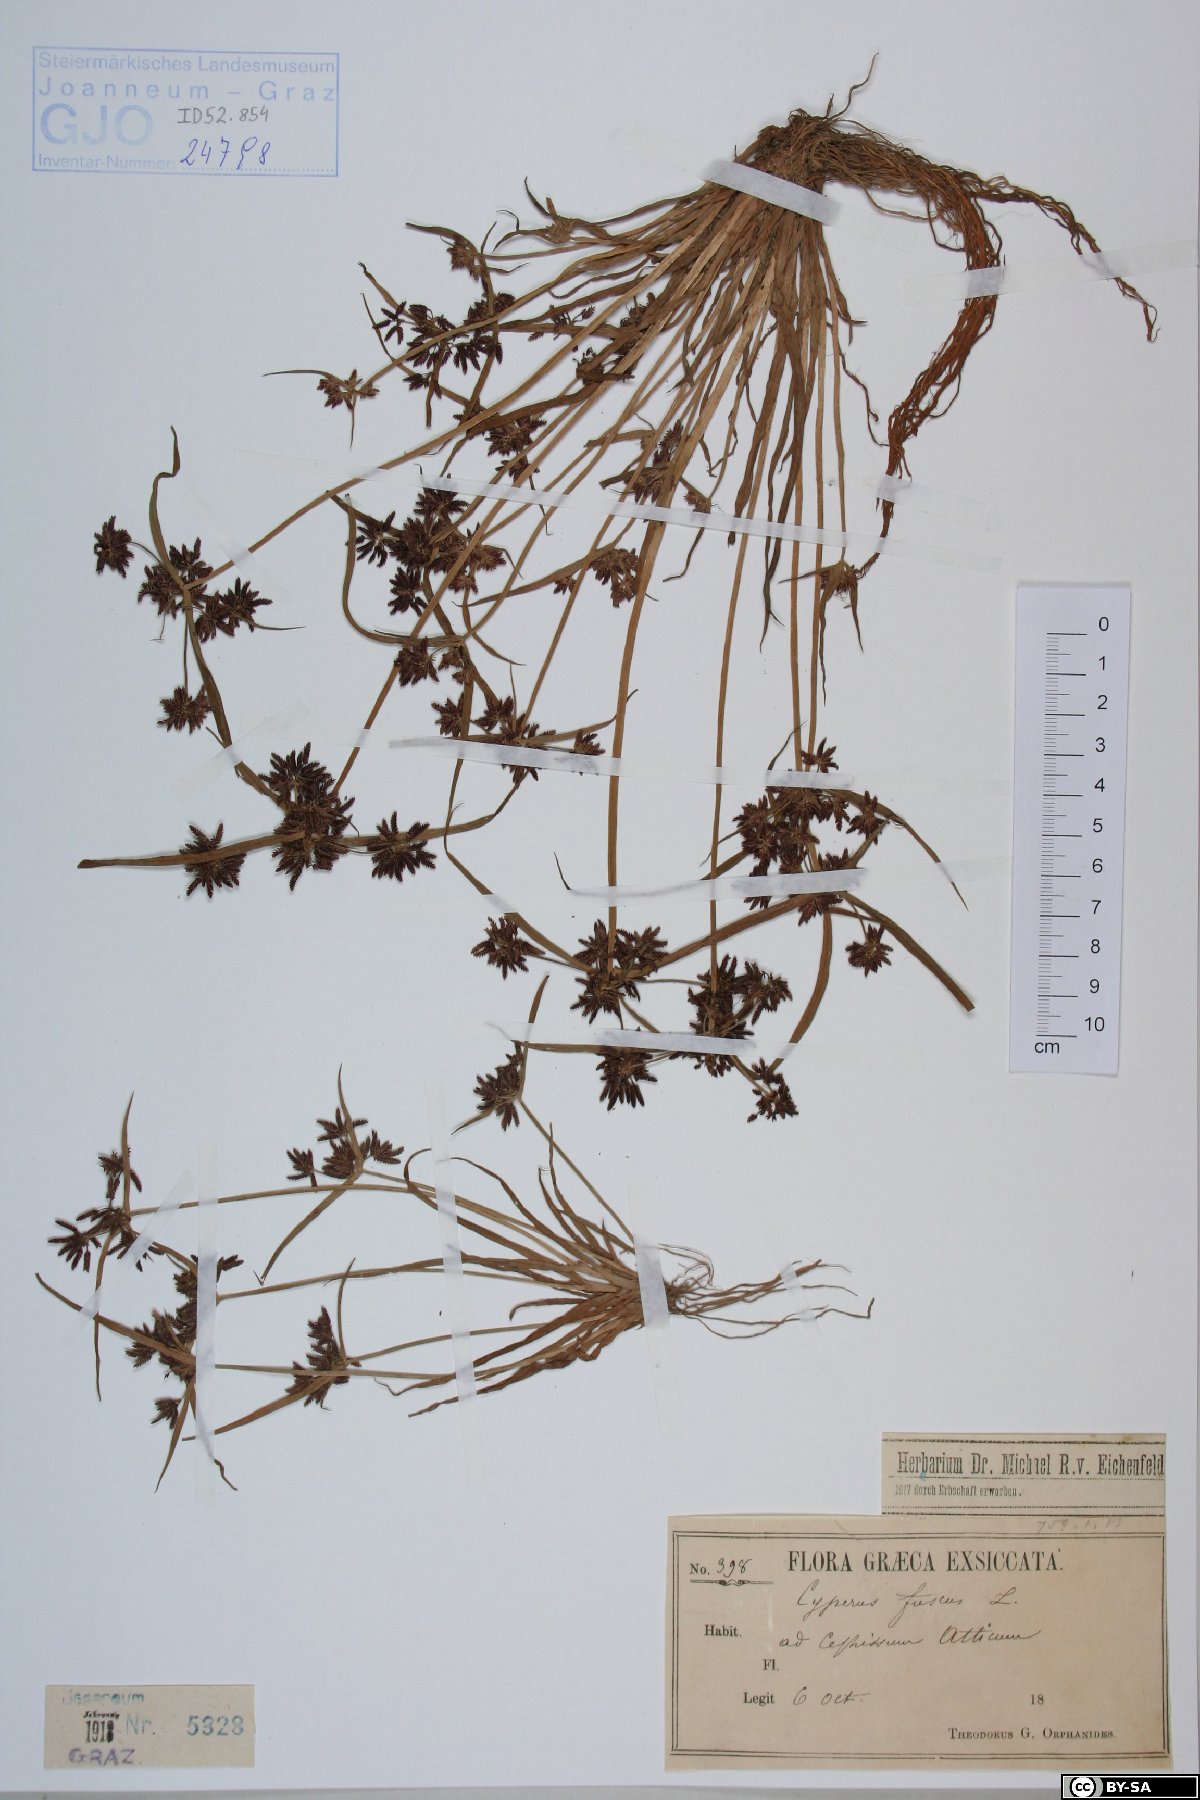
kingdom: Plantae
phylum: Tracheophyta
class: Liliopsida
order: Poales
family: Cyperaceae
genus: Cyperus
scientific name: Cyperus fuscus
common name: Brown galingale
